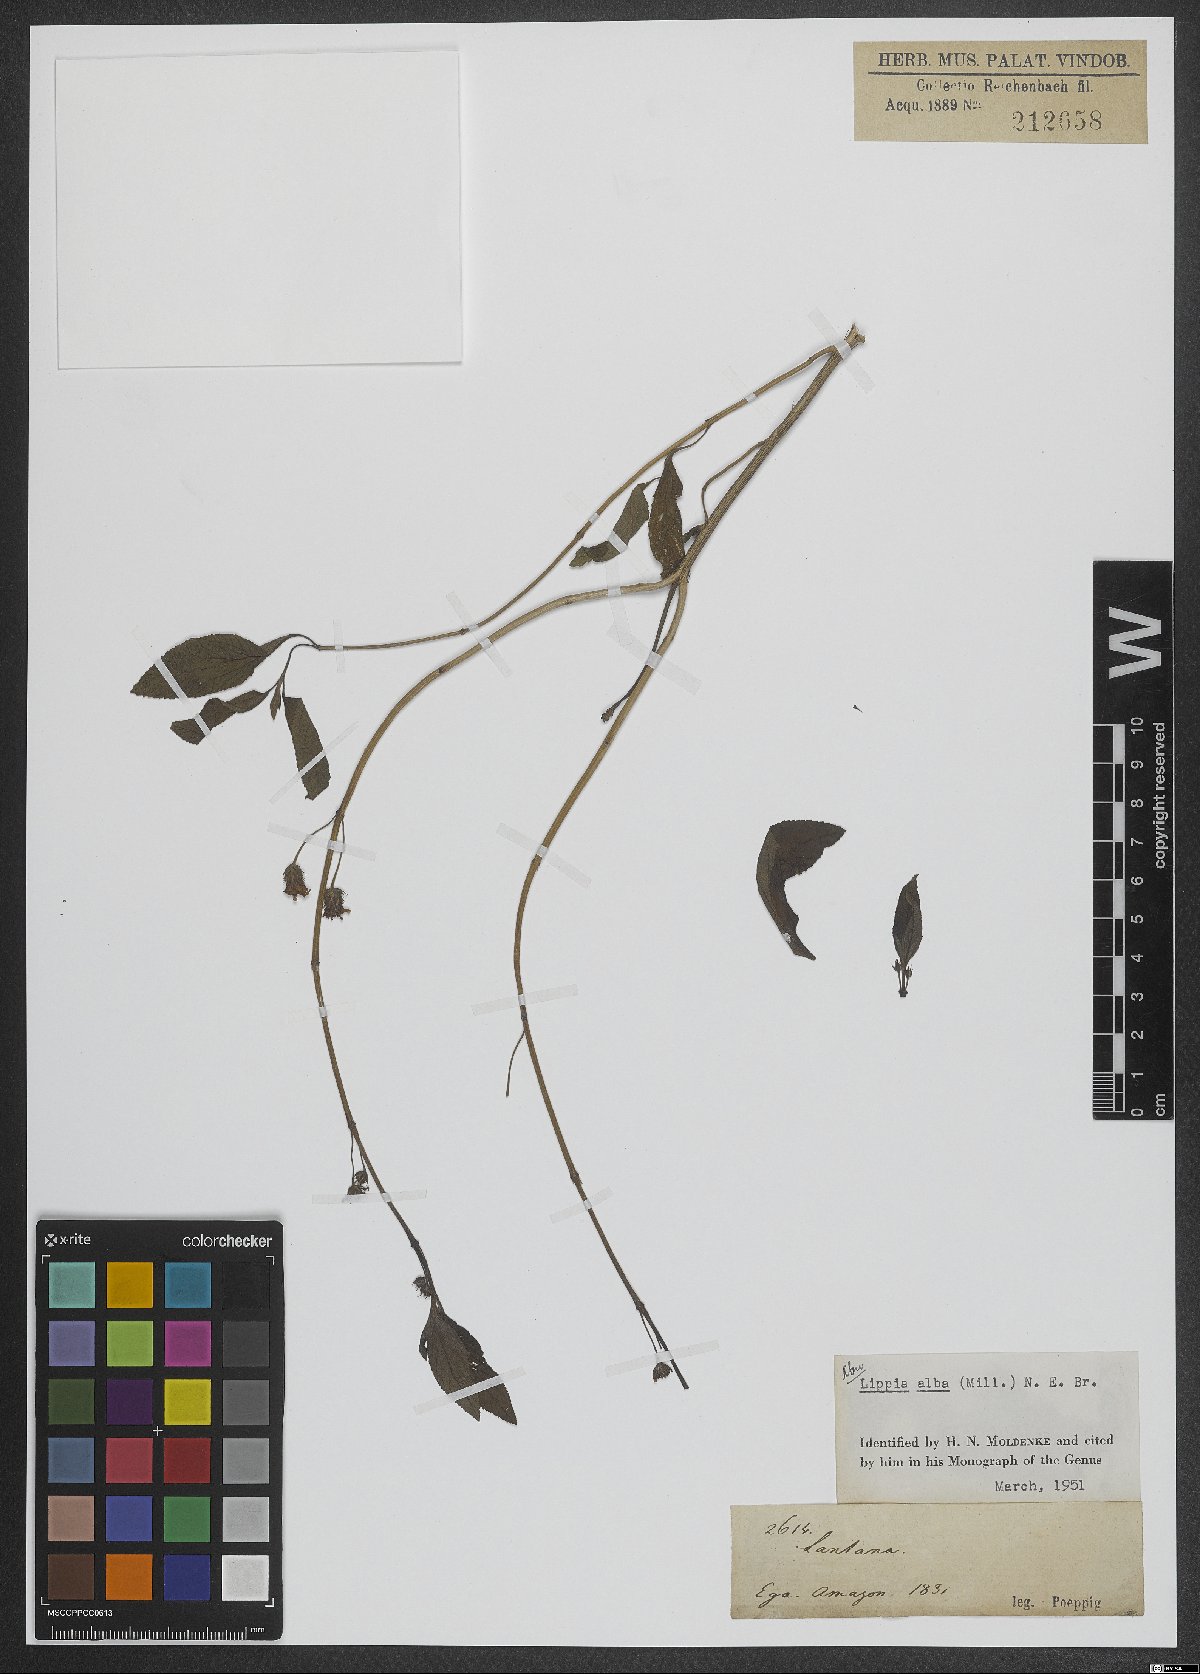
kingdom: Plantae
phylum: Tracheophyta
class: Magnoliopsida
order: Lamiales
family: Verbenaceae
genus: Lippia
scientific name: Lippia alba
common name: Bushy matgrass
